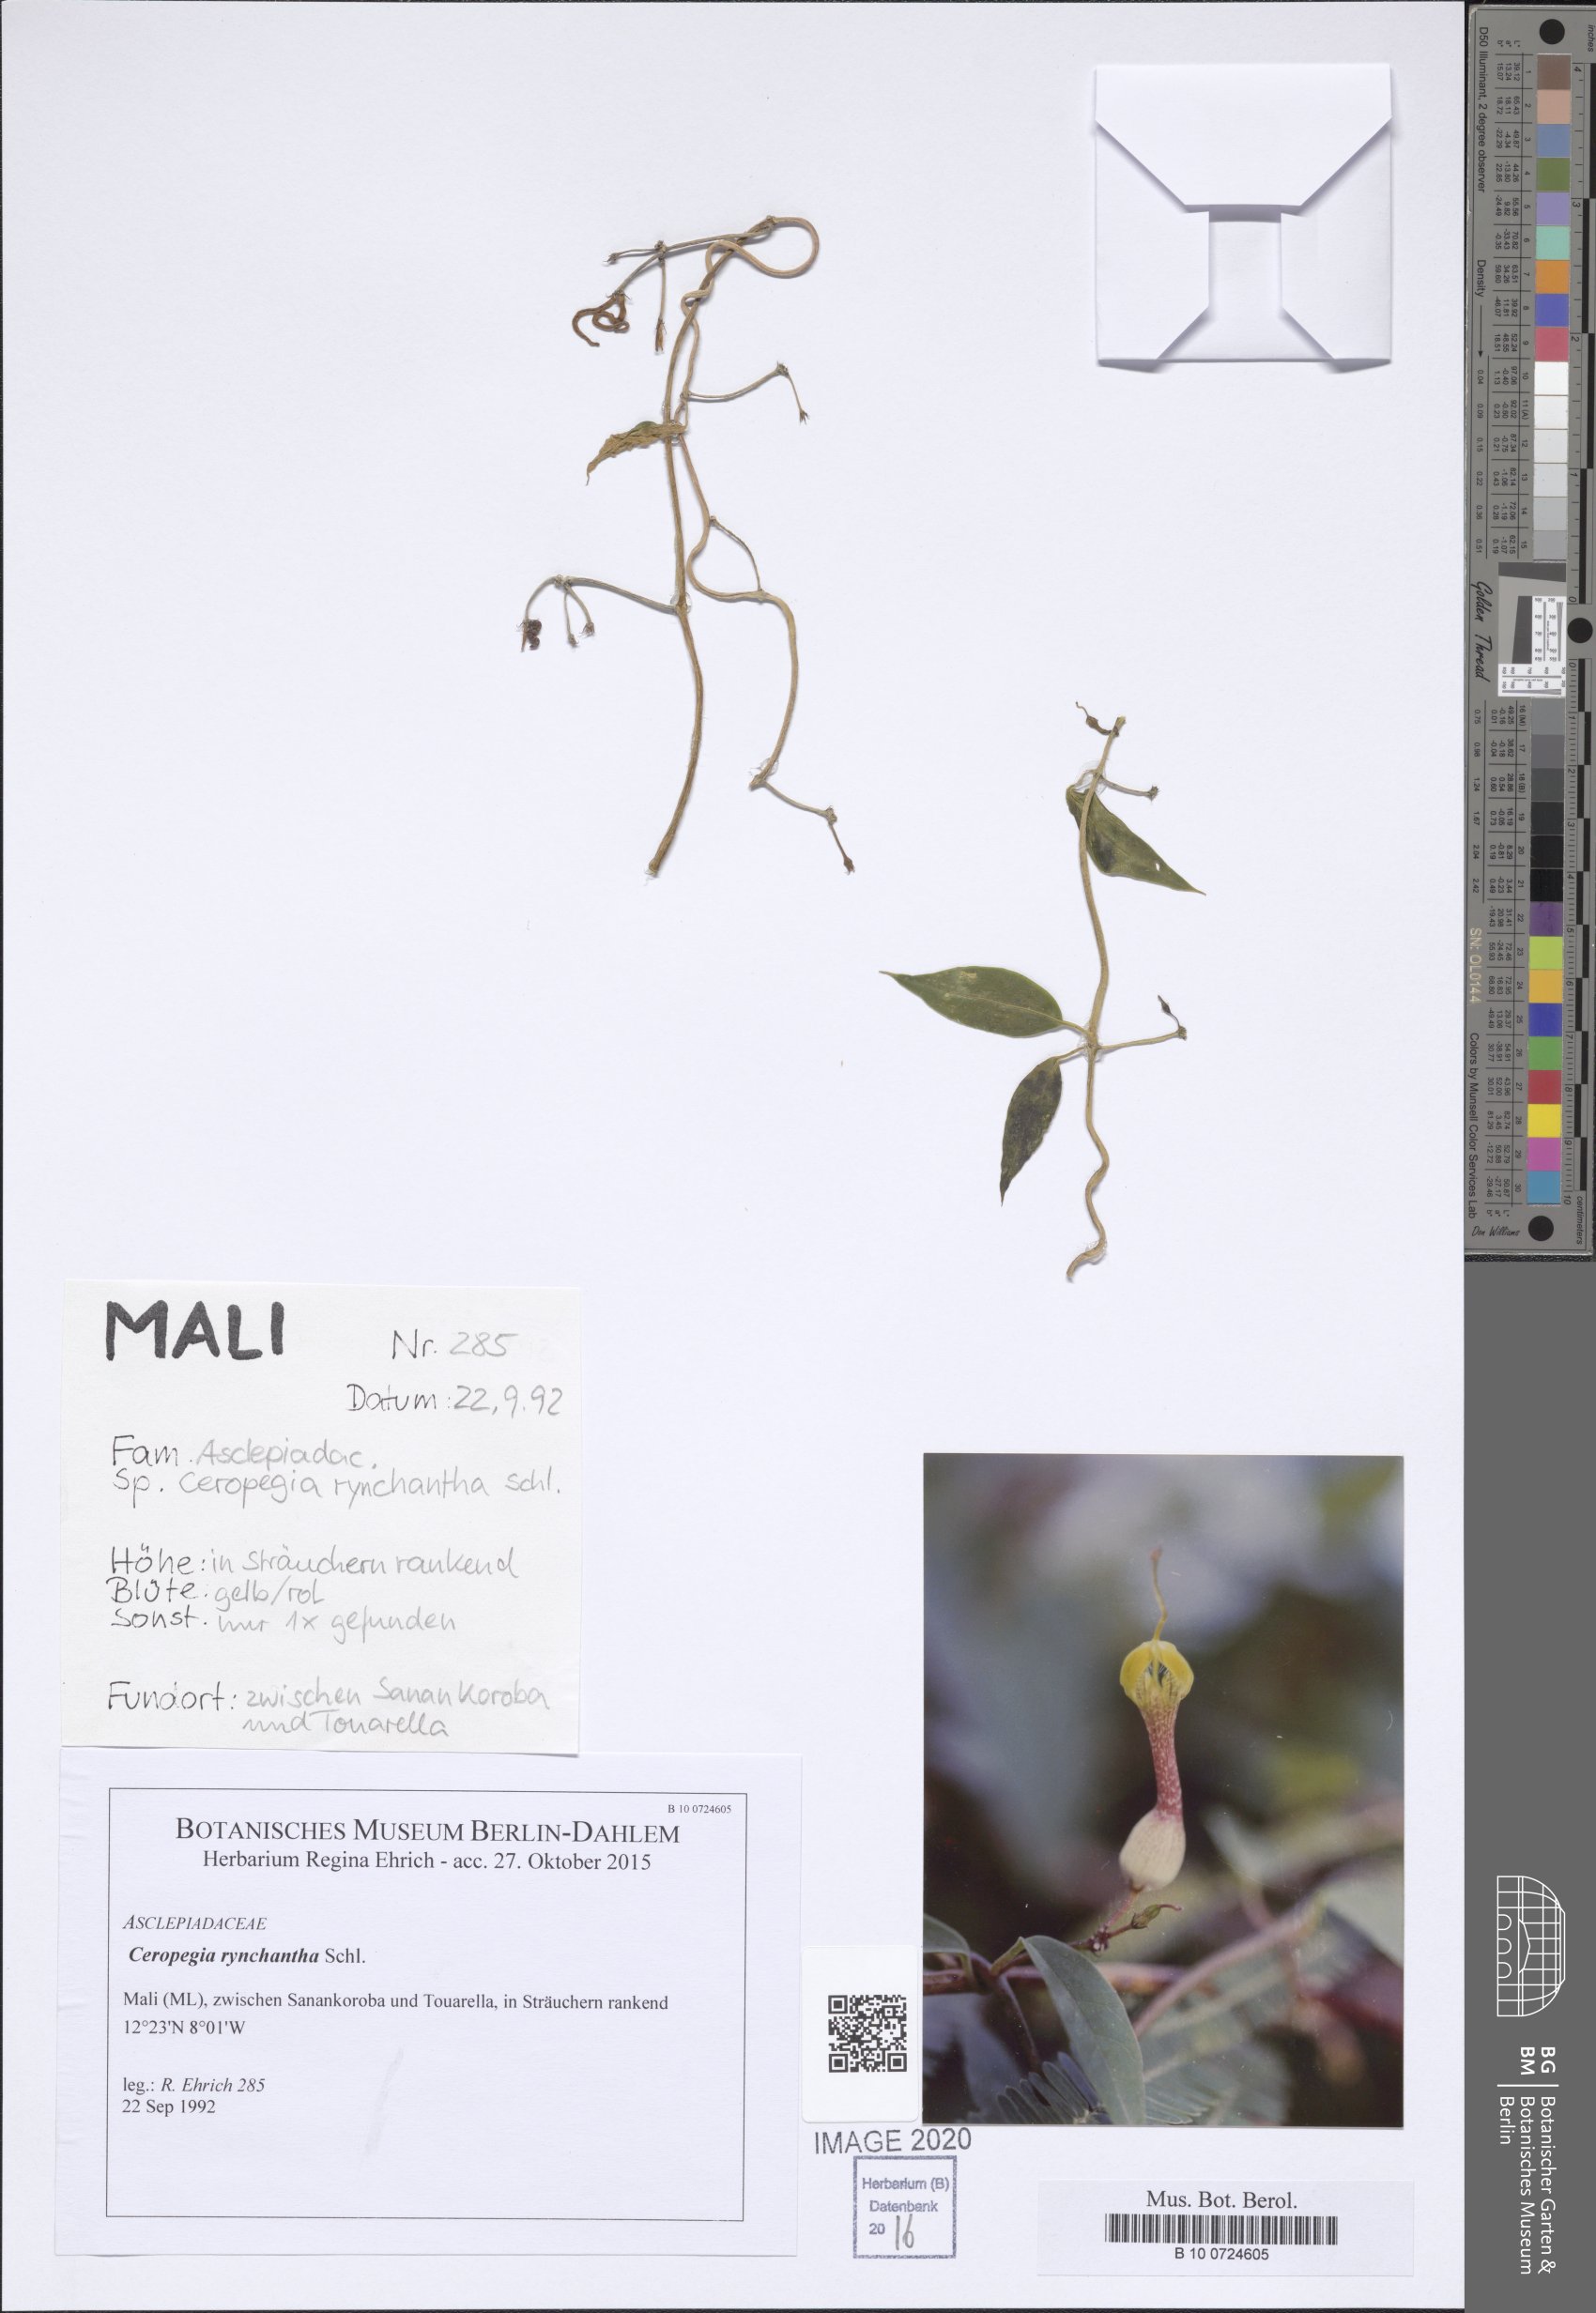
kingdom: Plantae
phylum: Tracheophyta
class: Magnoliopsida
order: Gentianales
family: Apocynaceae
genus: Ceropegia
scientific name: Ceropegia rhynchantha
